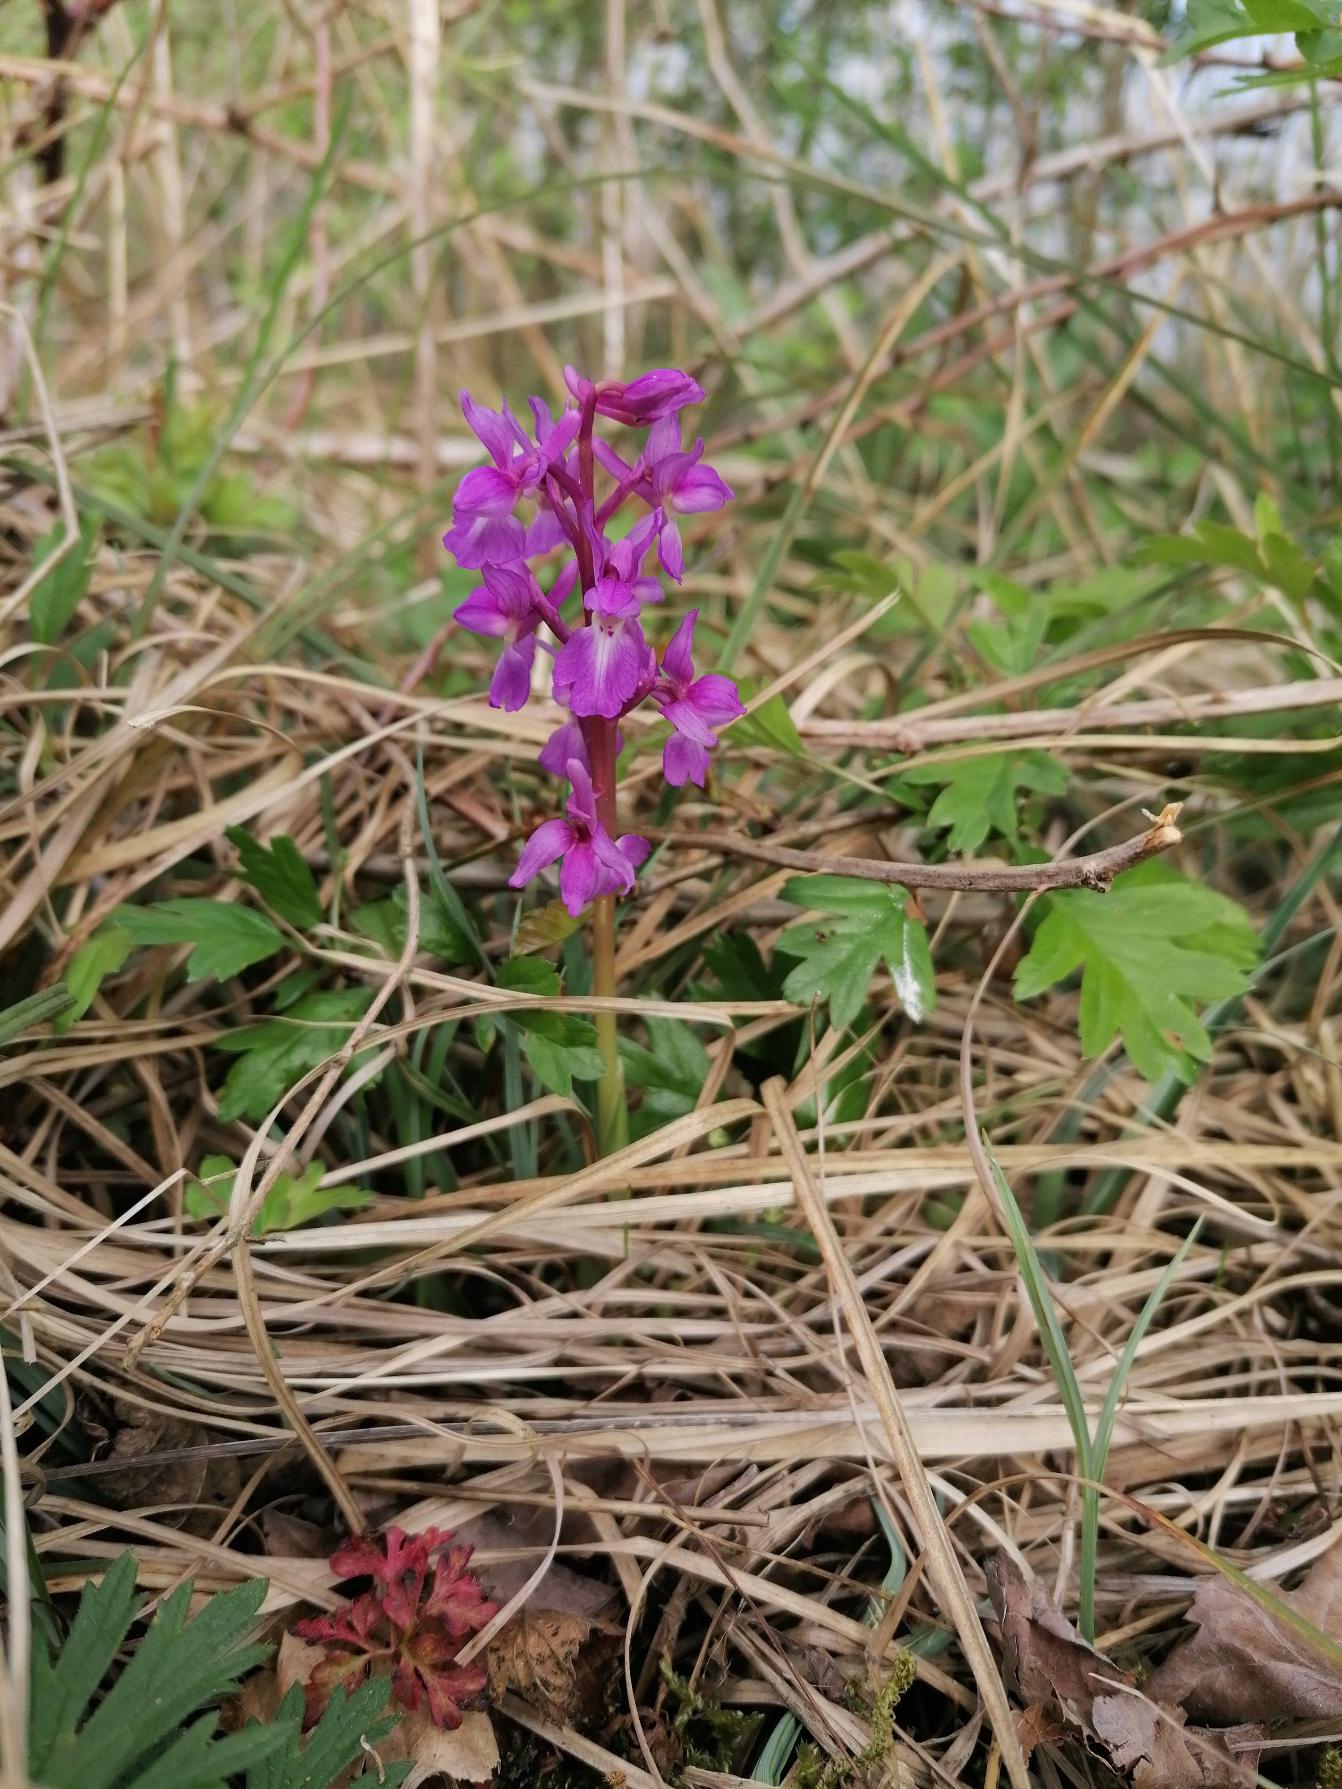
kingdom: Plantae
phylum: Tracheophyta
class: Liliopsida
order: Asparagales
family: Orchidaceae
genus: Orchis
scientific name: Orchis mascula
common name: Tyndakset gøgeurt
